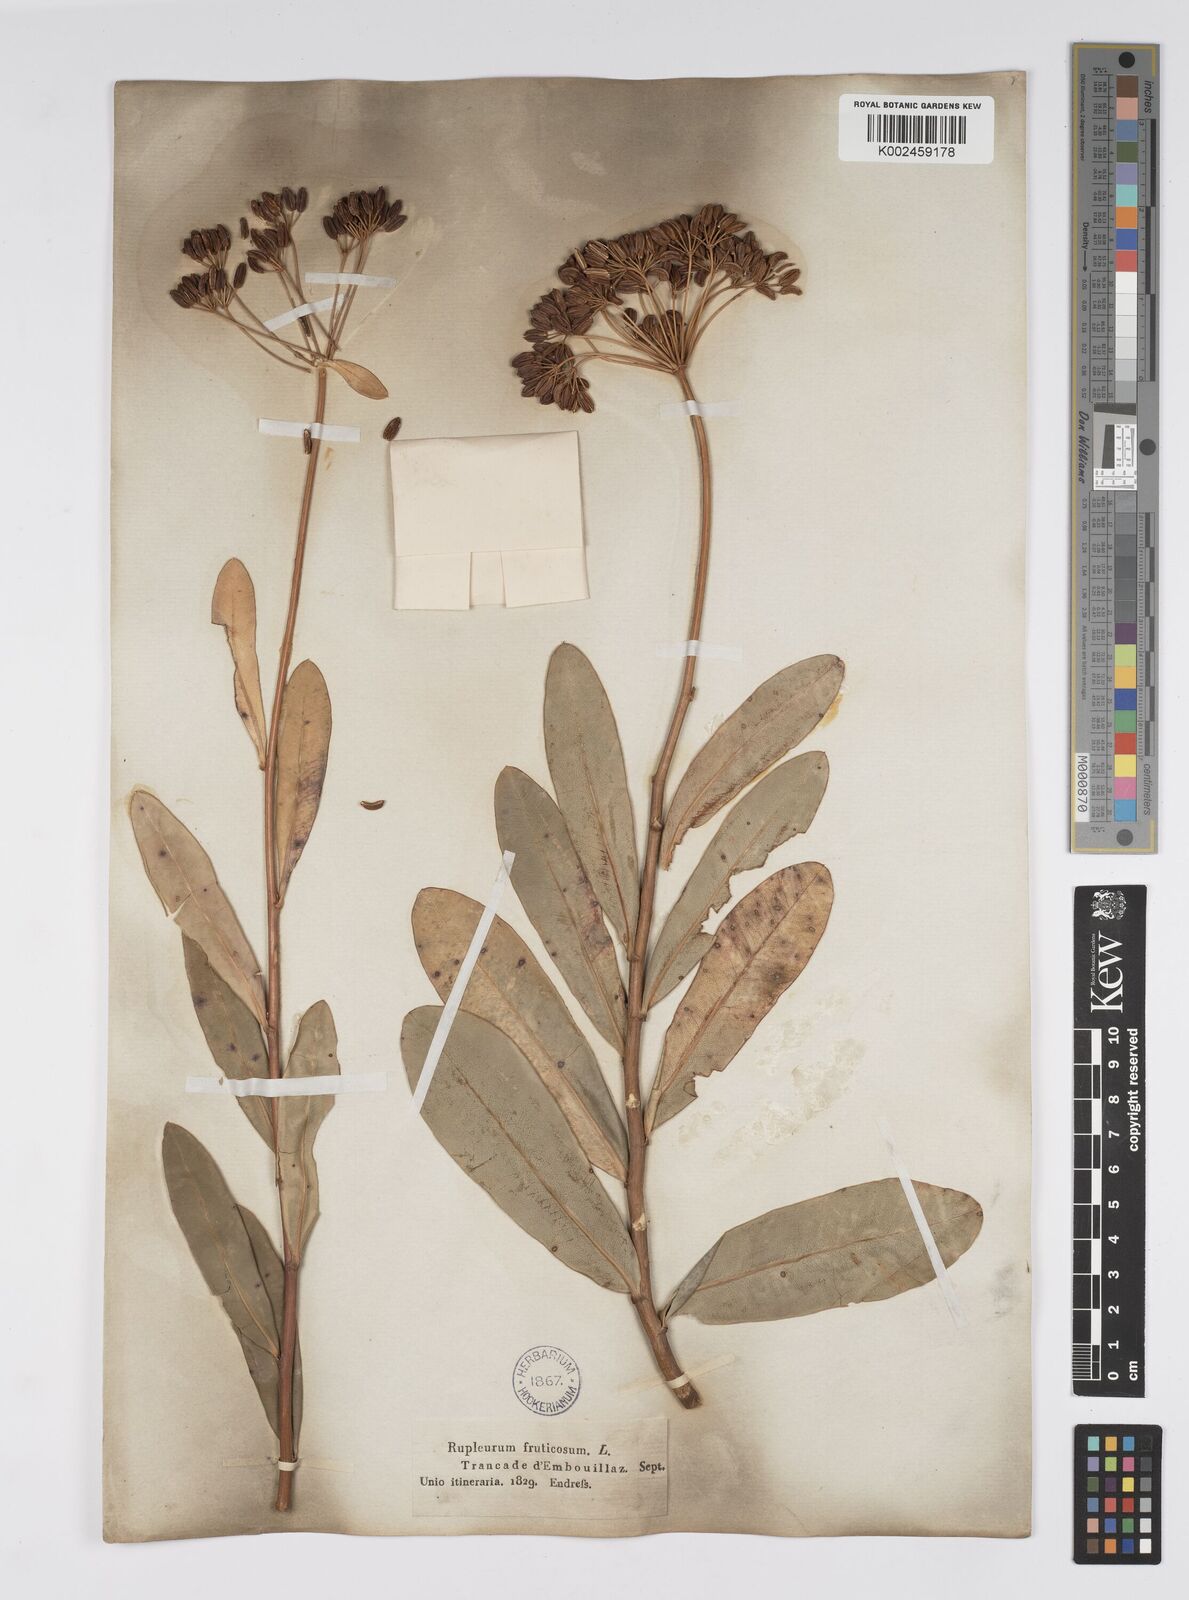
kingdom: Plantae
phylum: Tracheophyta
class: Magnoliopsida
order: Apiales
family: Apiaceae
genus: Bupleurum
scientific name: Bupleurum fruticosum
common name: Shrubby hare's-ear
